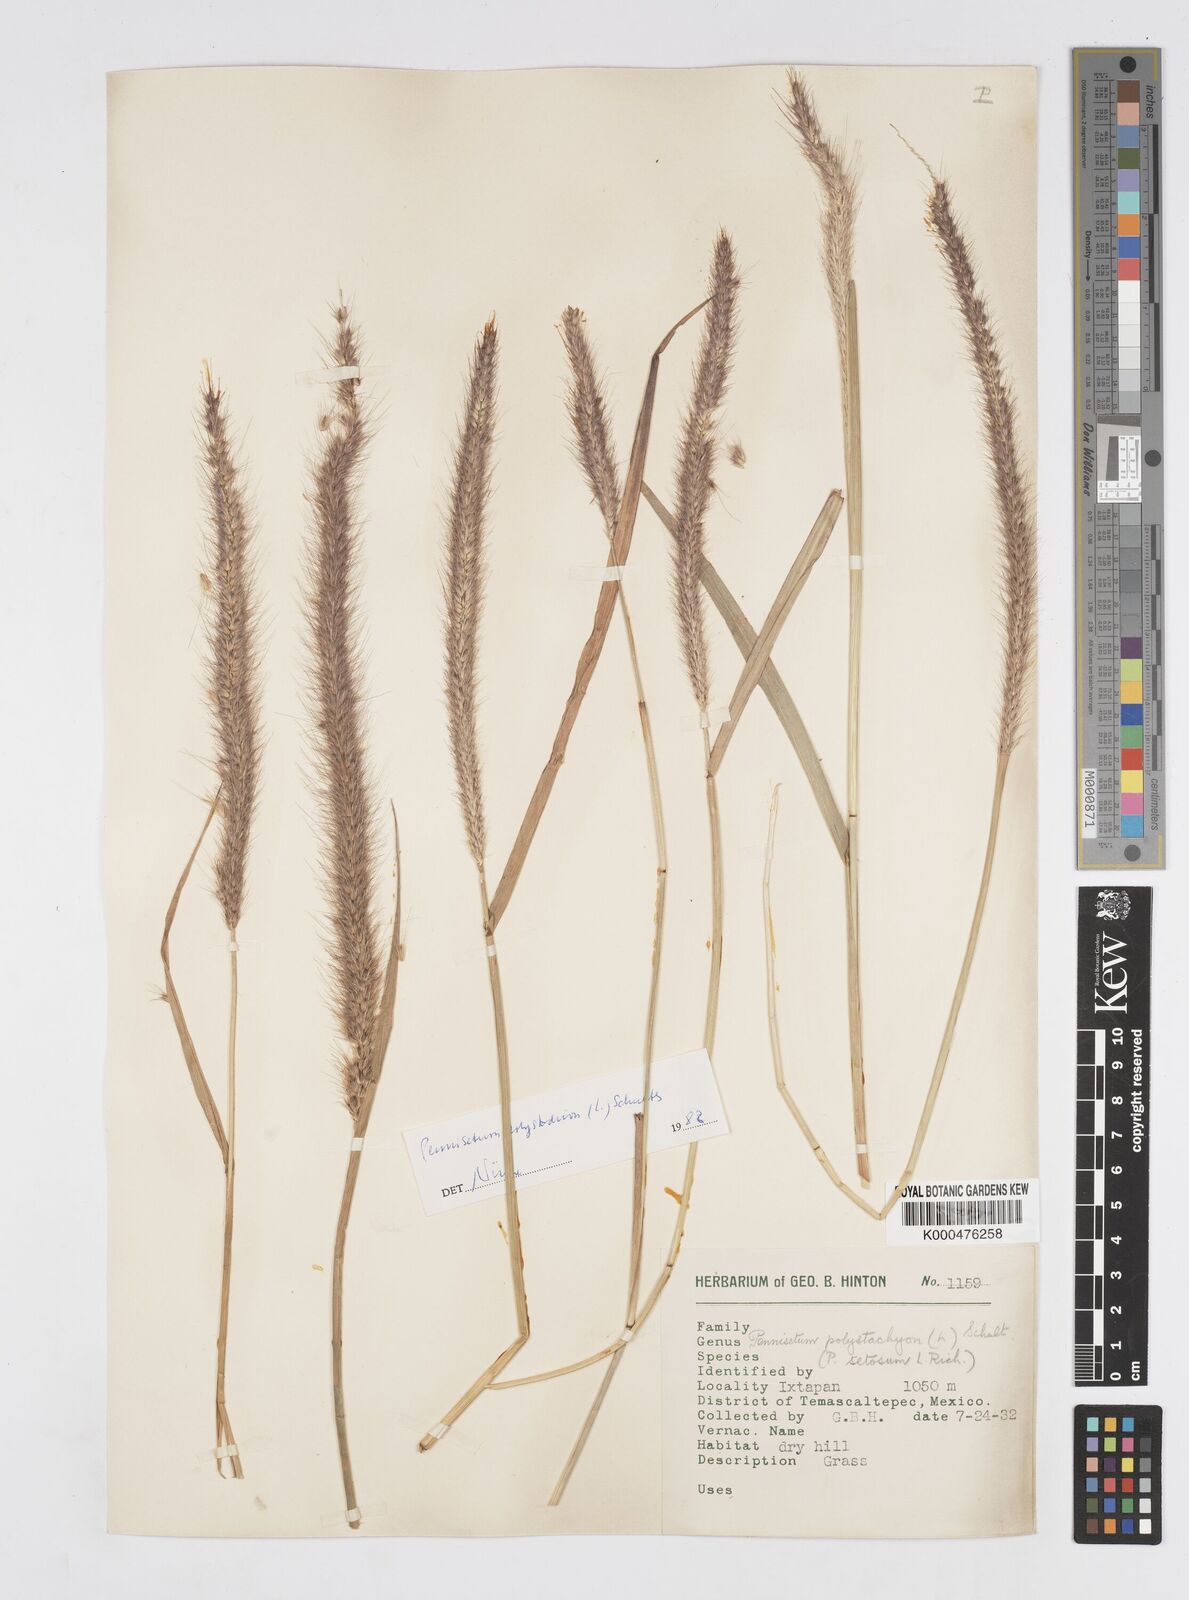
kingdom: Plantae
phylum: Tracheophyta
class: Liliopsida
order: Poales
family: Poaceae
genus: Setaria
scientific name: Setaria parviflora
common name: Knotroot bristle-grass
